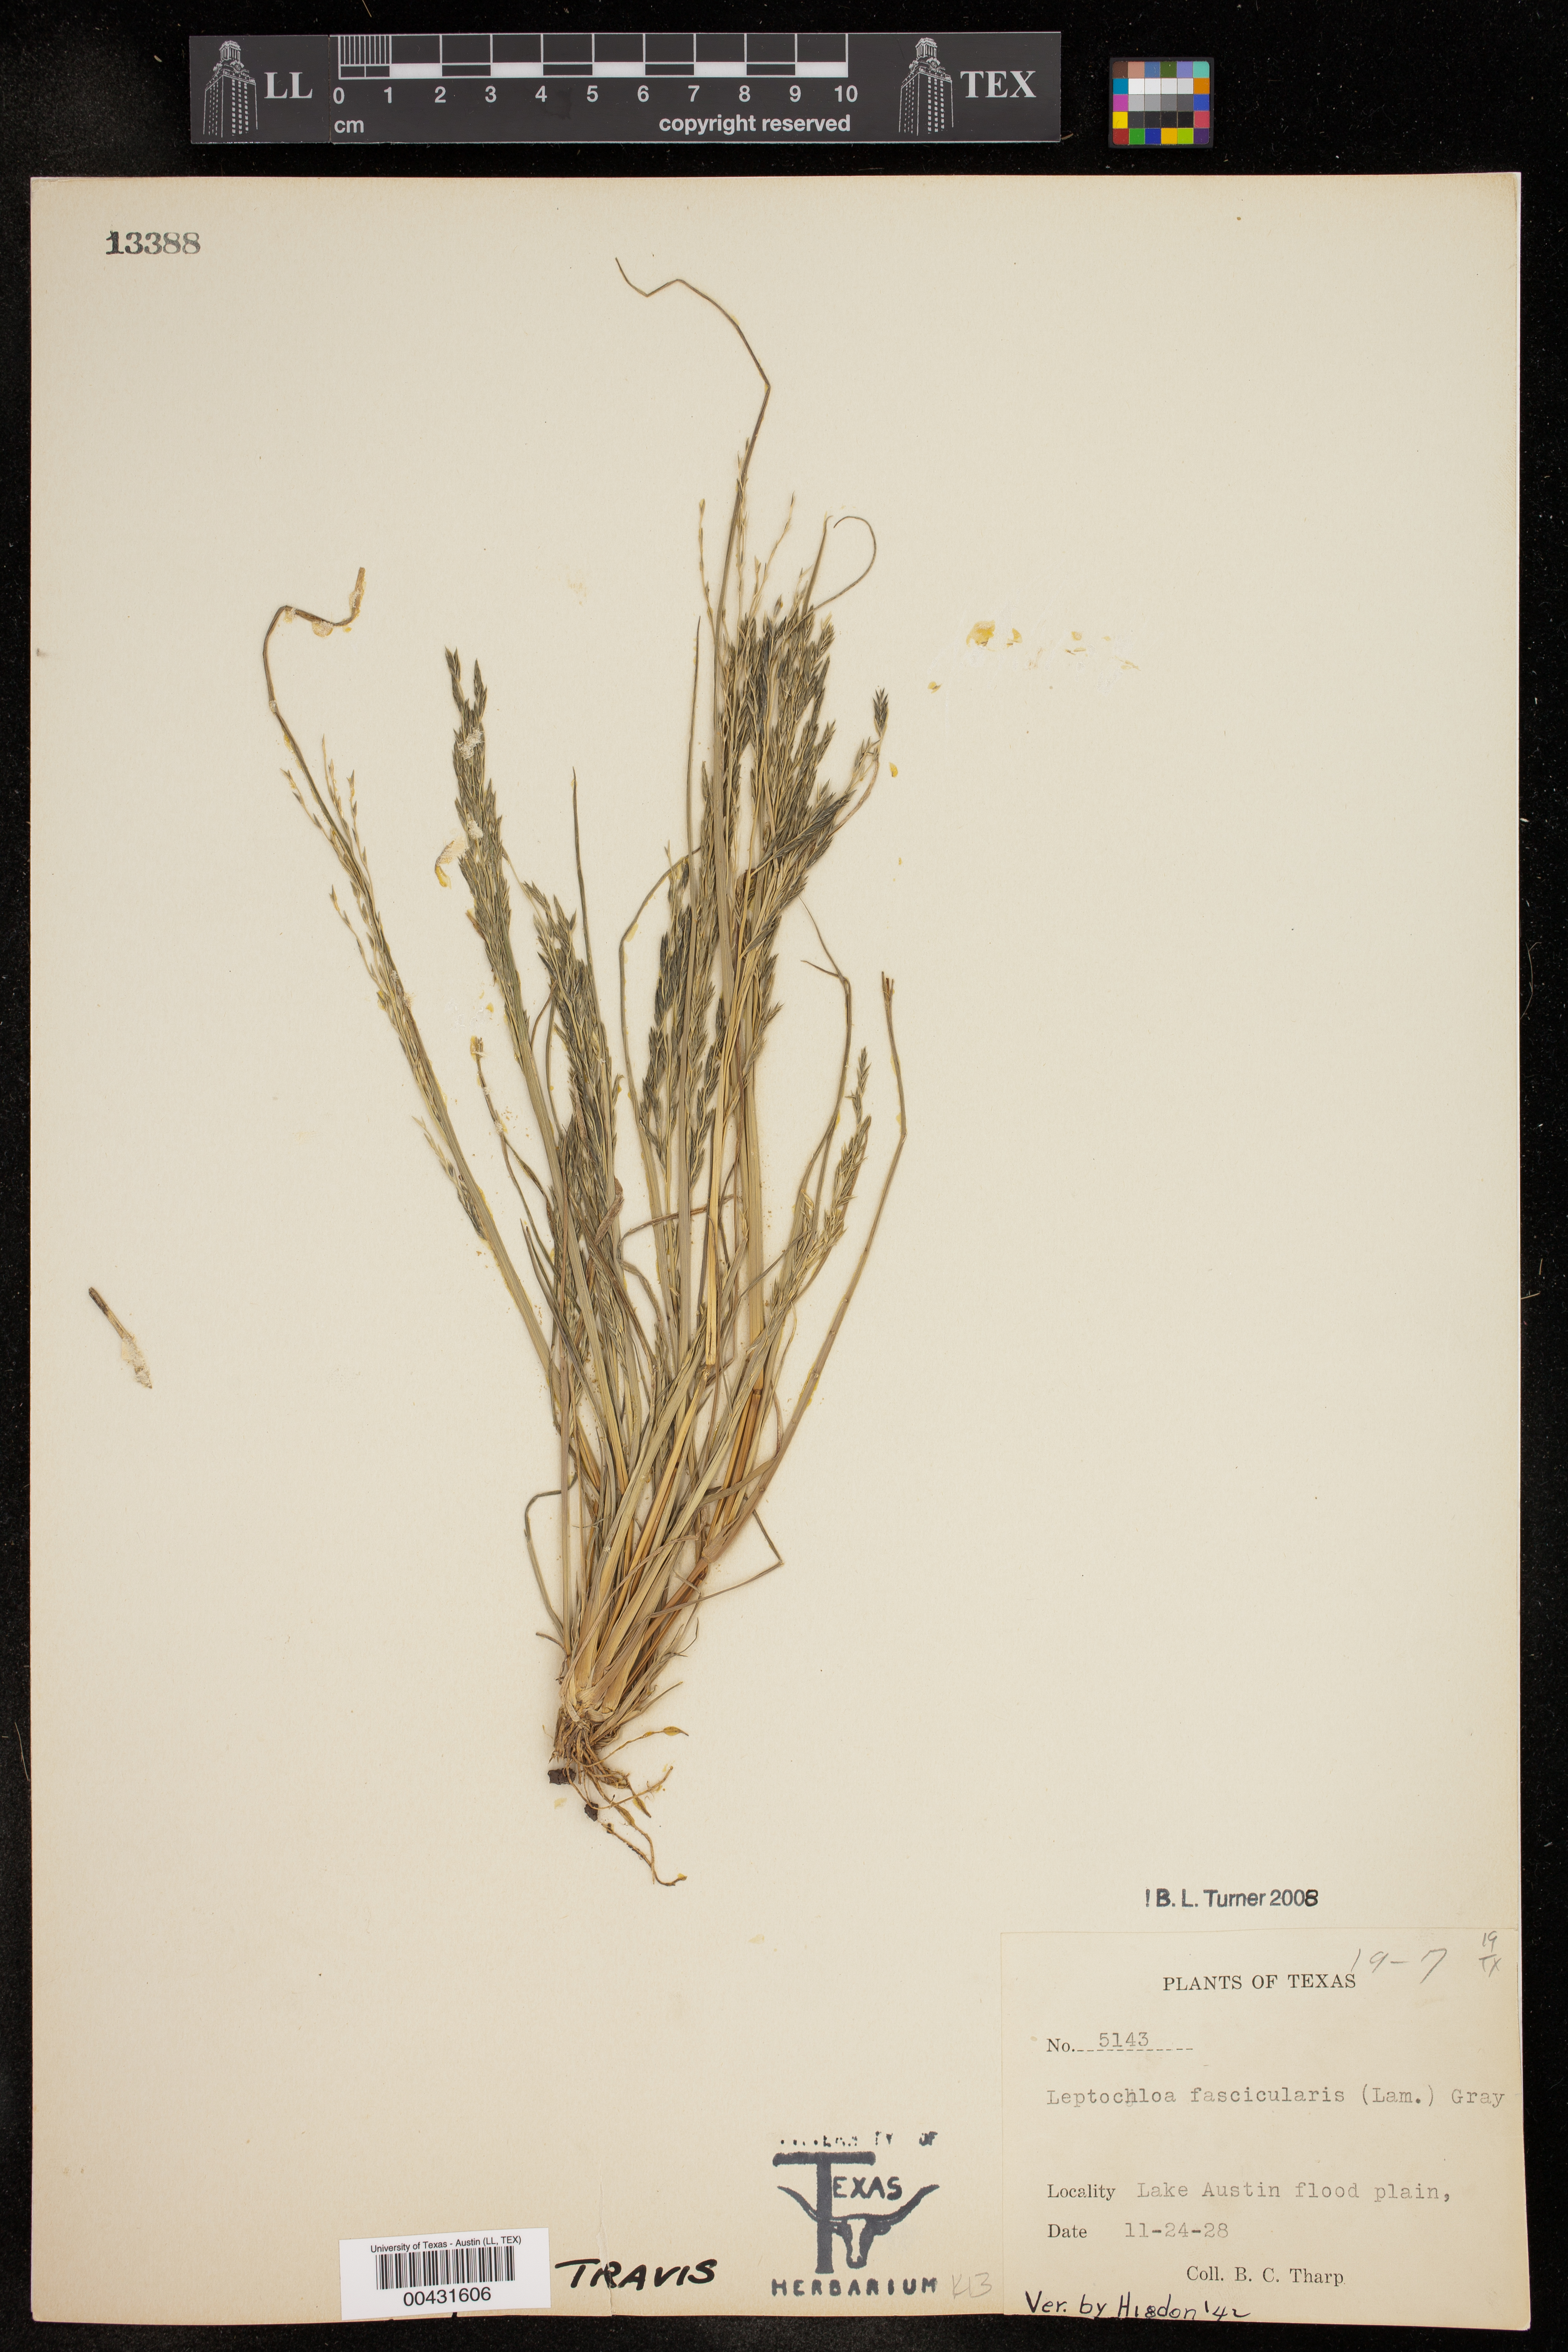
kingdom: Plantae
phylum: Tracheophyta
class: Liliopsida
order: Poales
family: Poaceae
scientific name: Poaceae
